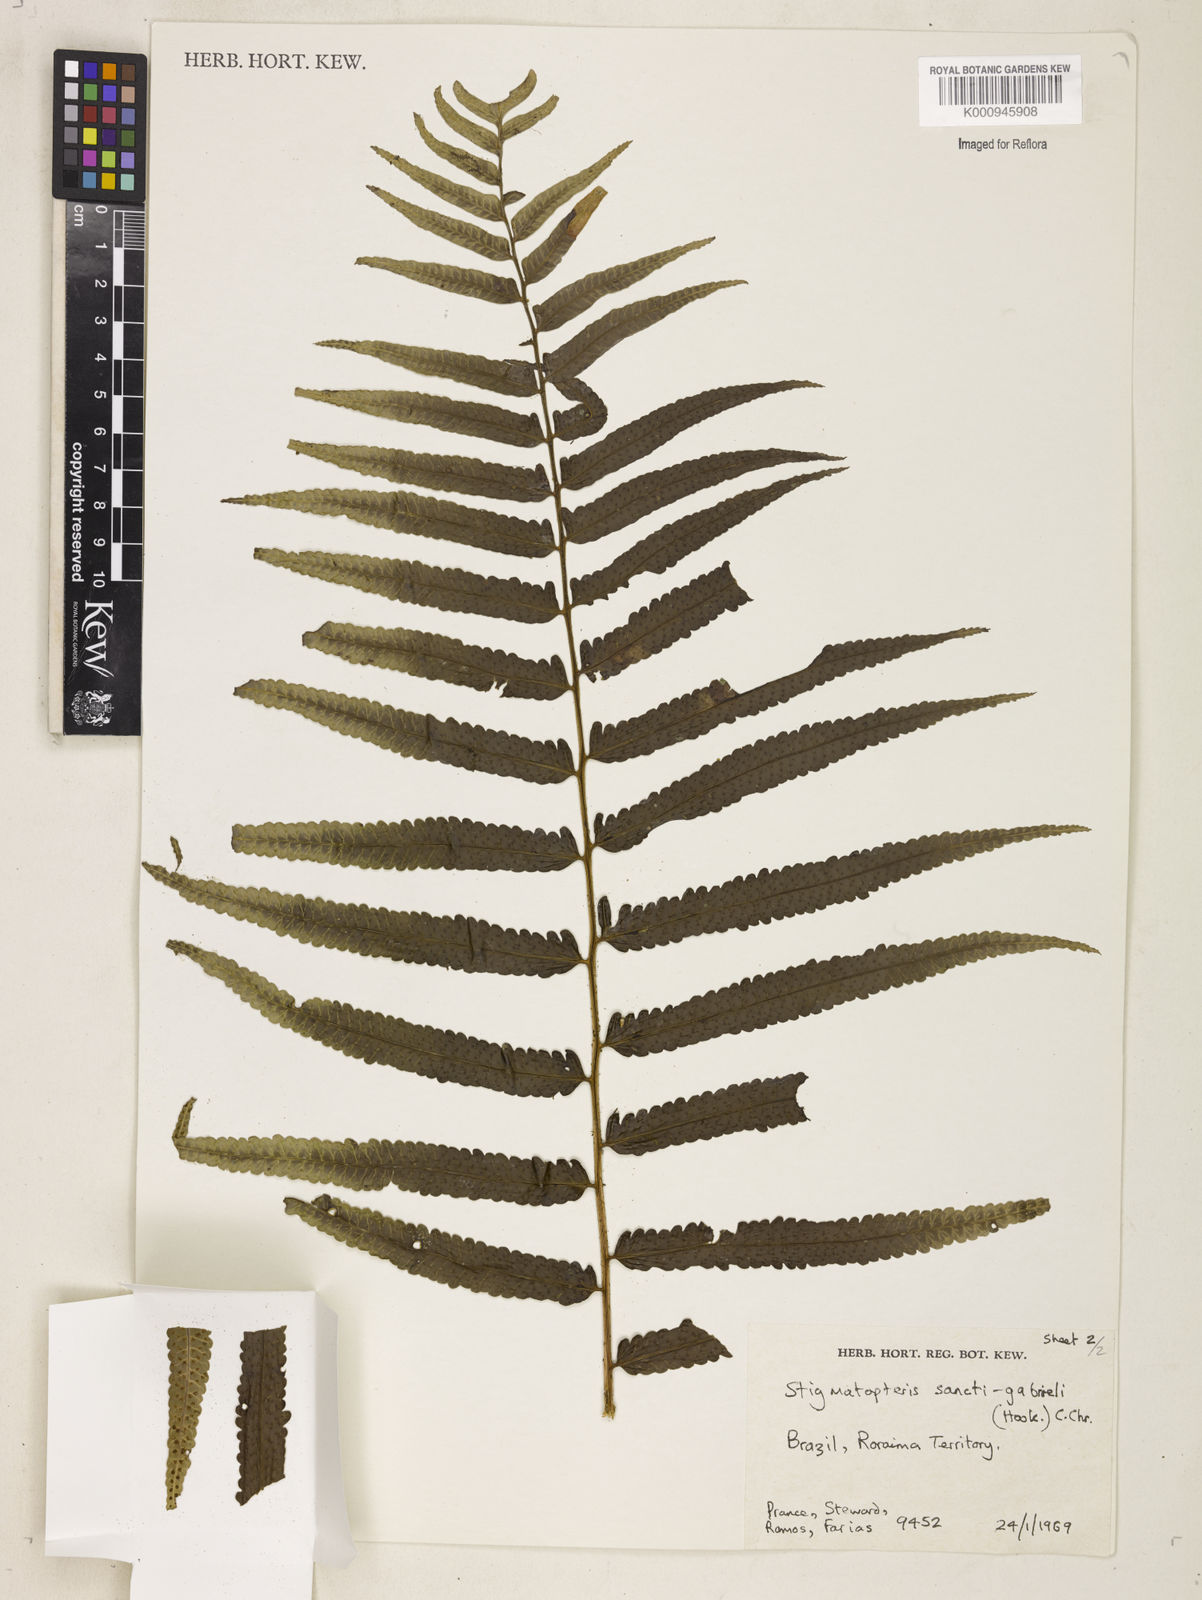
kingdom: Plantae
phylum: Tracheophyta
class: Polypodiopsida
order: Polypodiales
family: Dryopteridaceae
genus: Cyclodium
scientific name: Cyclodium
